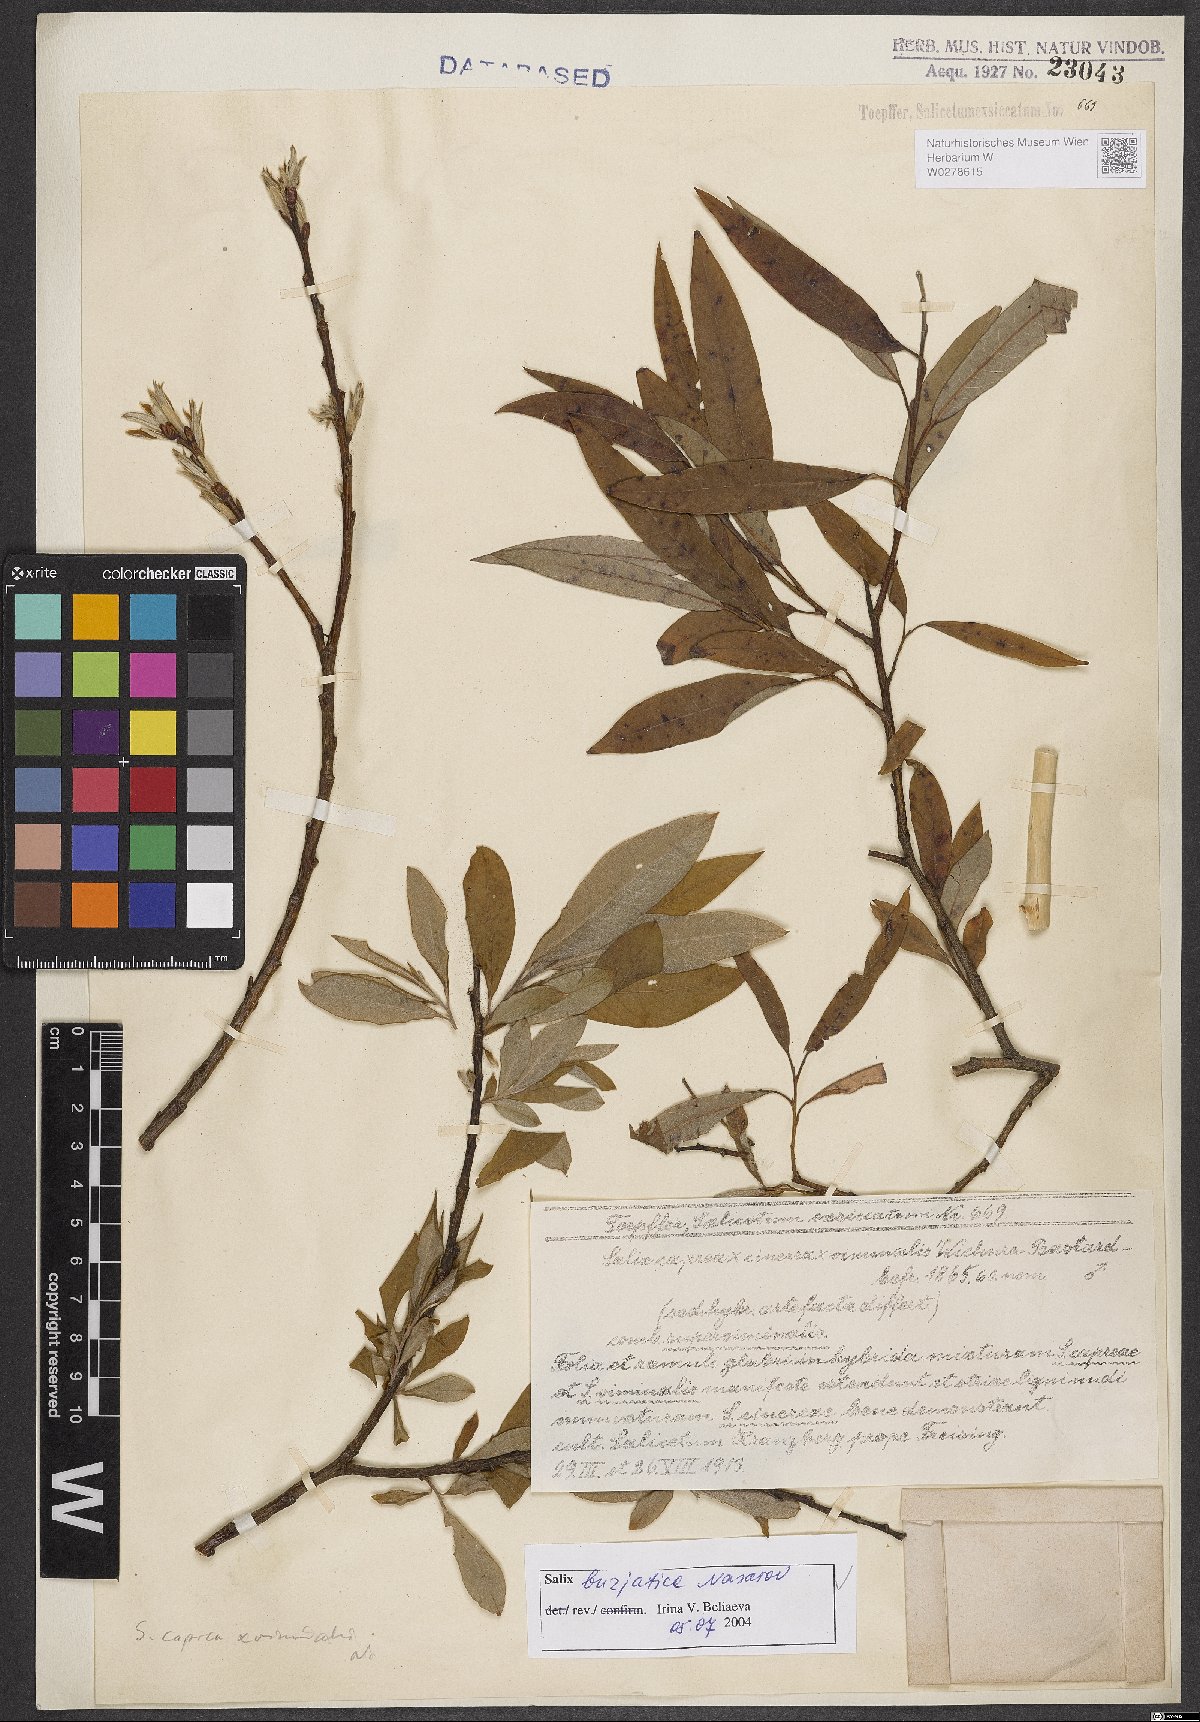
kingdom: Plantae
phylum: Tracheophyta
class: Magnoliopsida
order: Malpighiales
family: Salicaceae
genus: Salix
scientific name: Salix gmelinii
